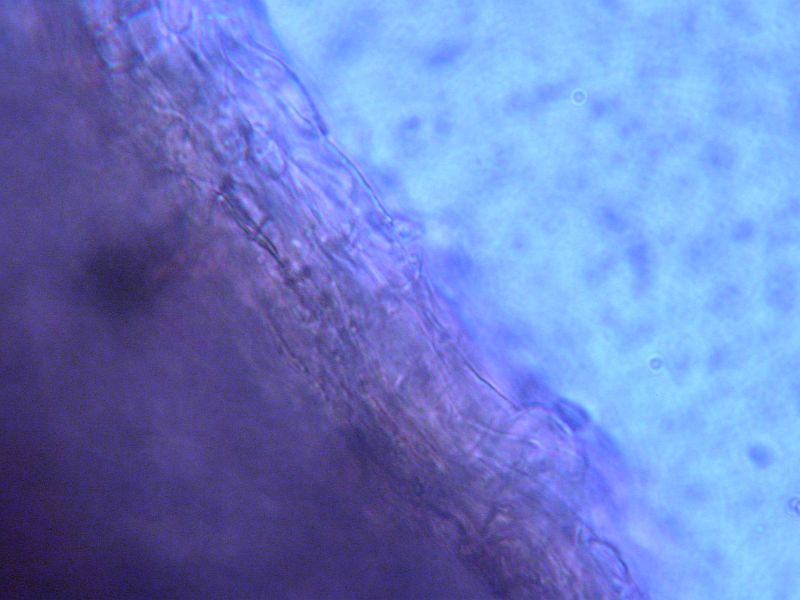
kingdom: Fungi
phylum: Basidiomycota
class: Agaricomycetes
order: Boletales
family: Rhizopogonaceae
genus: Rhizopogon
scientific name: Rhizopogon pseudoroseolus
